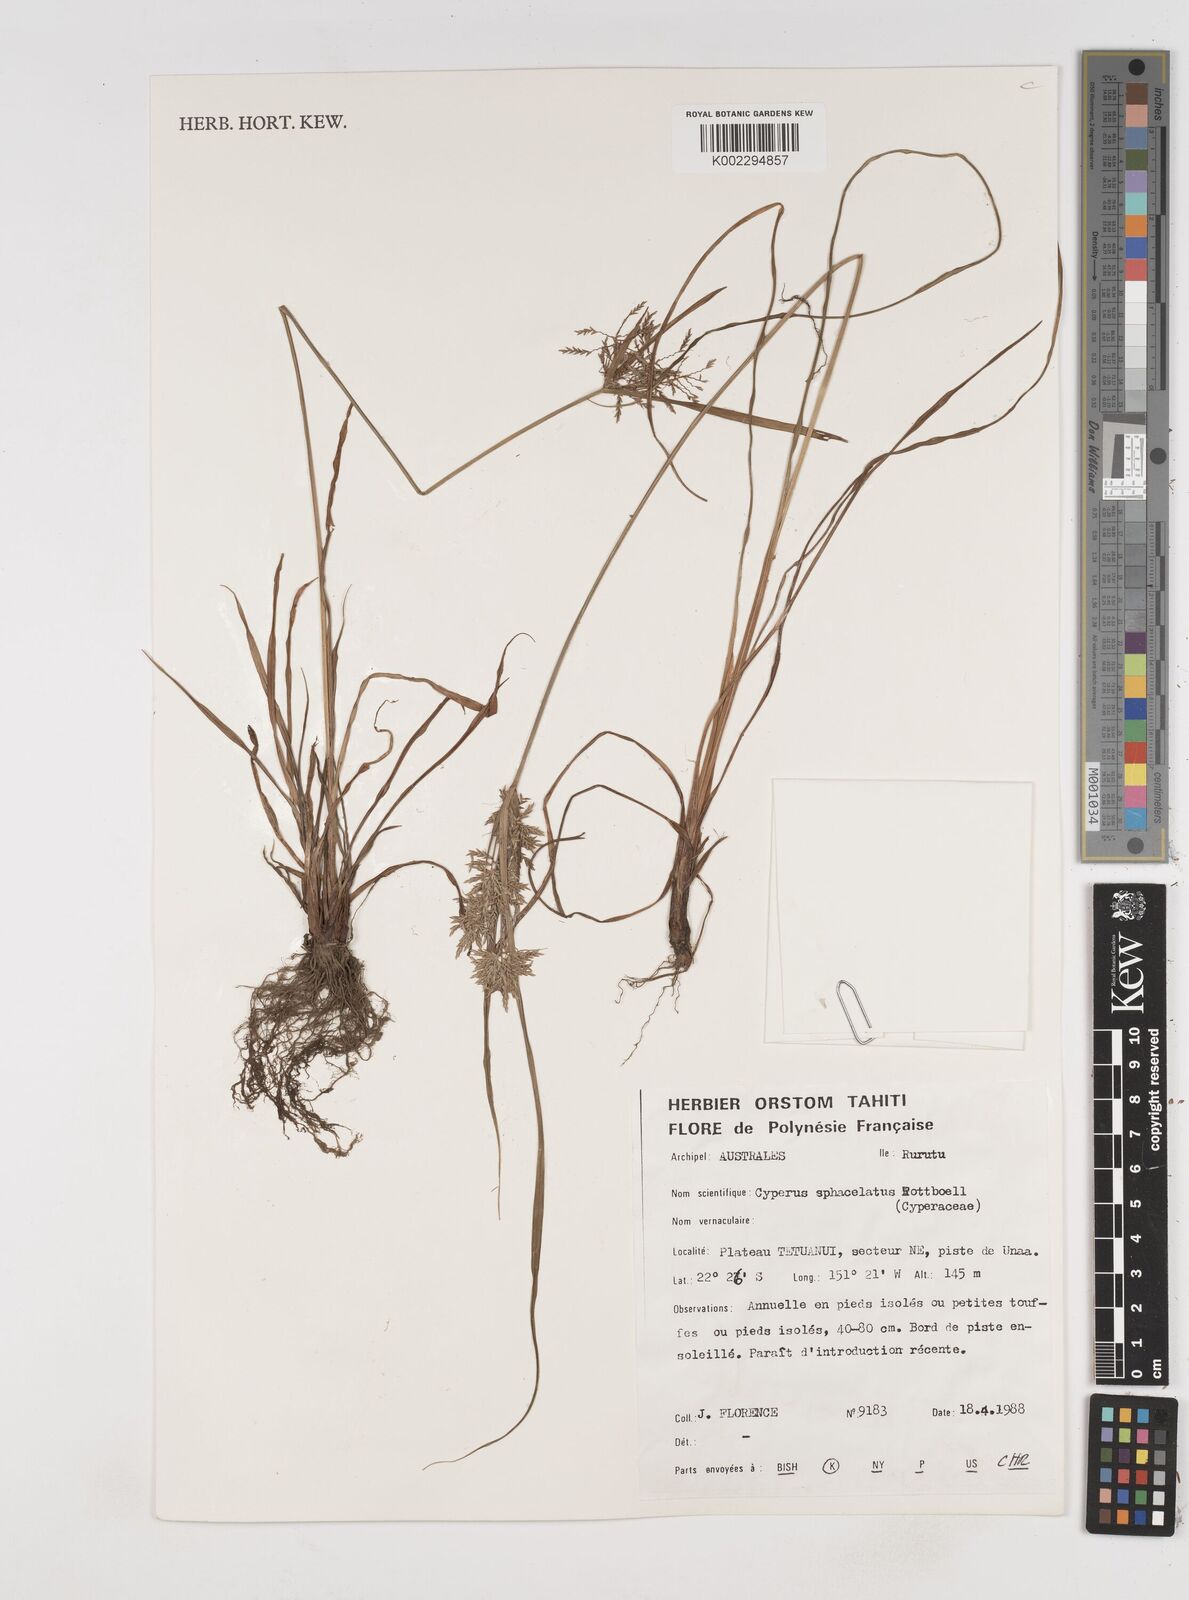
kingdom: Plantae
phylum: Tracheophyta
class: Liliopsida
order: Poales
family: Cyperaceae
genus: Cyperus
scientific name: Cyperus sphacelatus
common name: Roadside flatsedge
